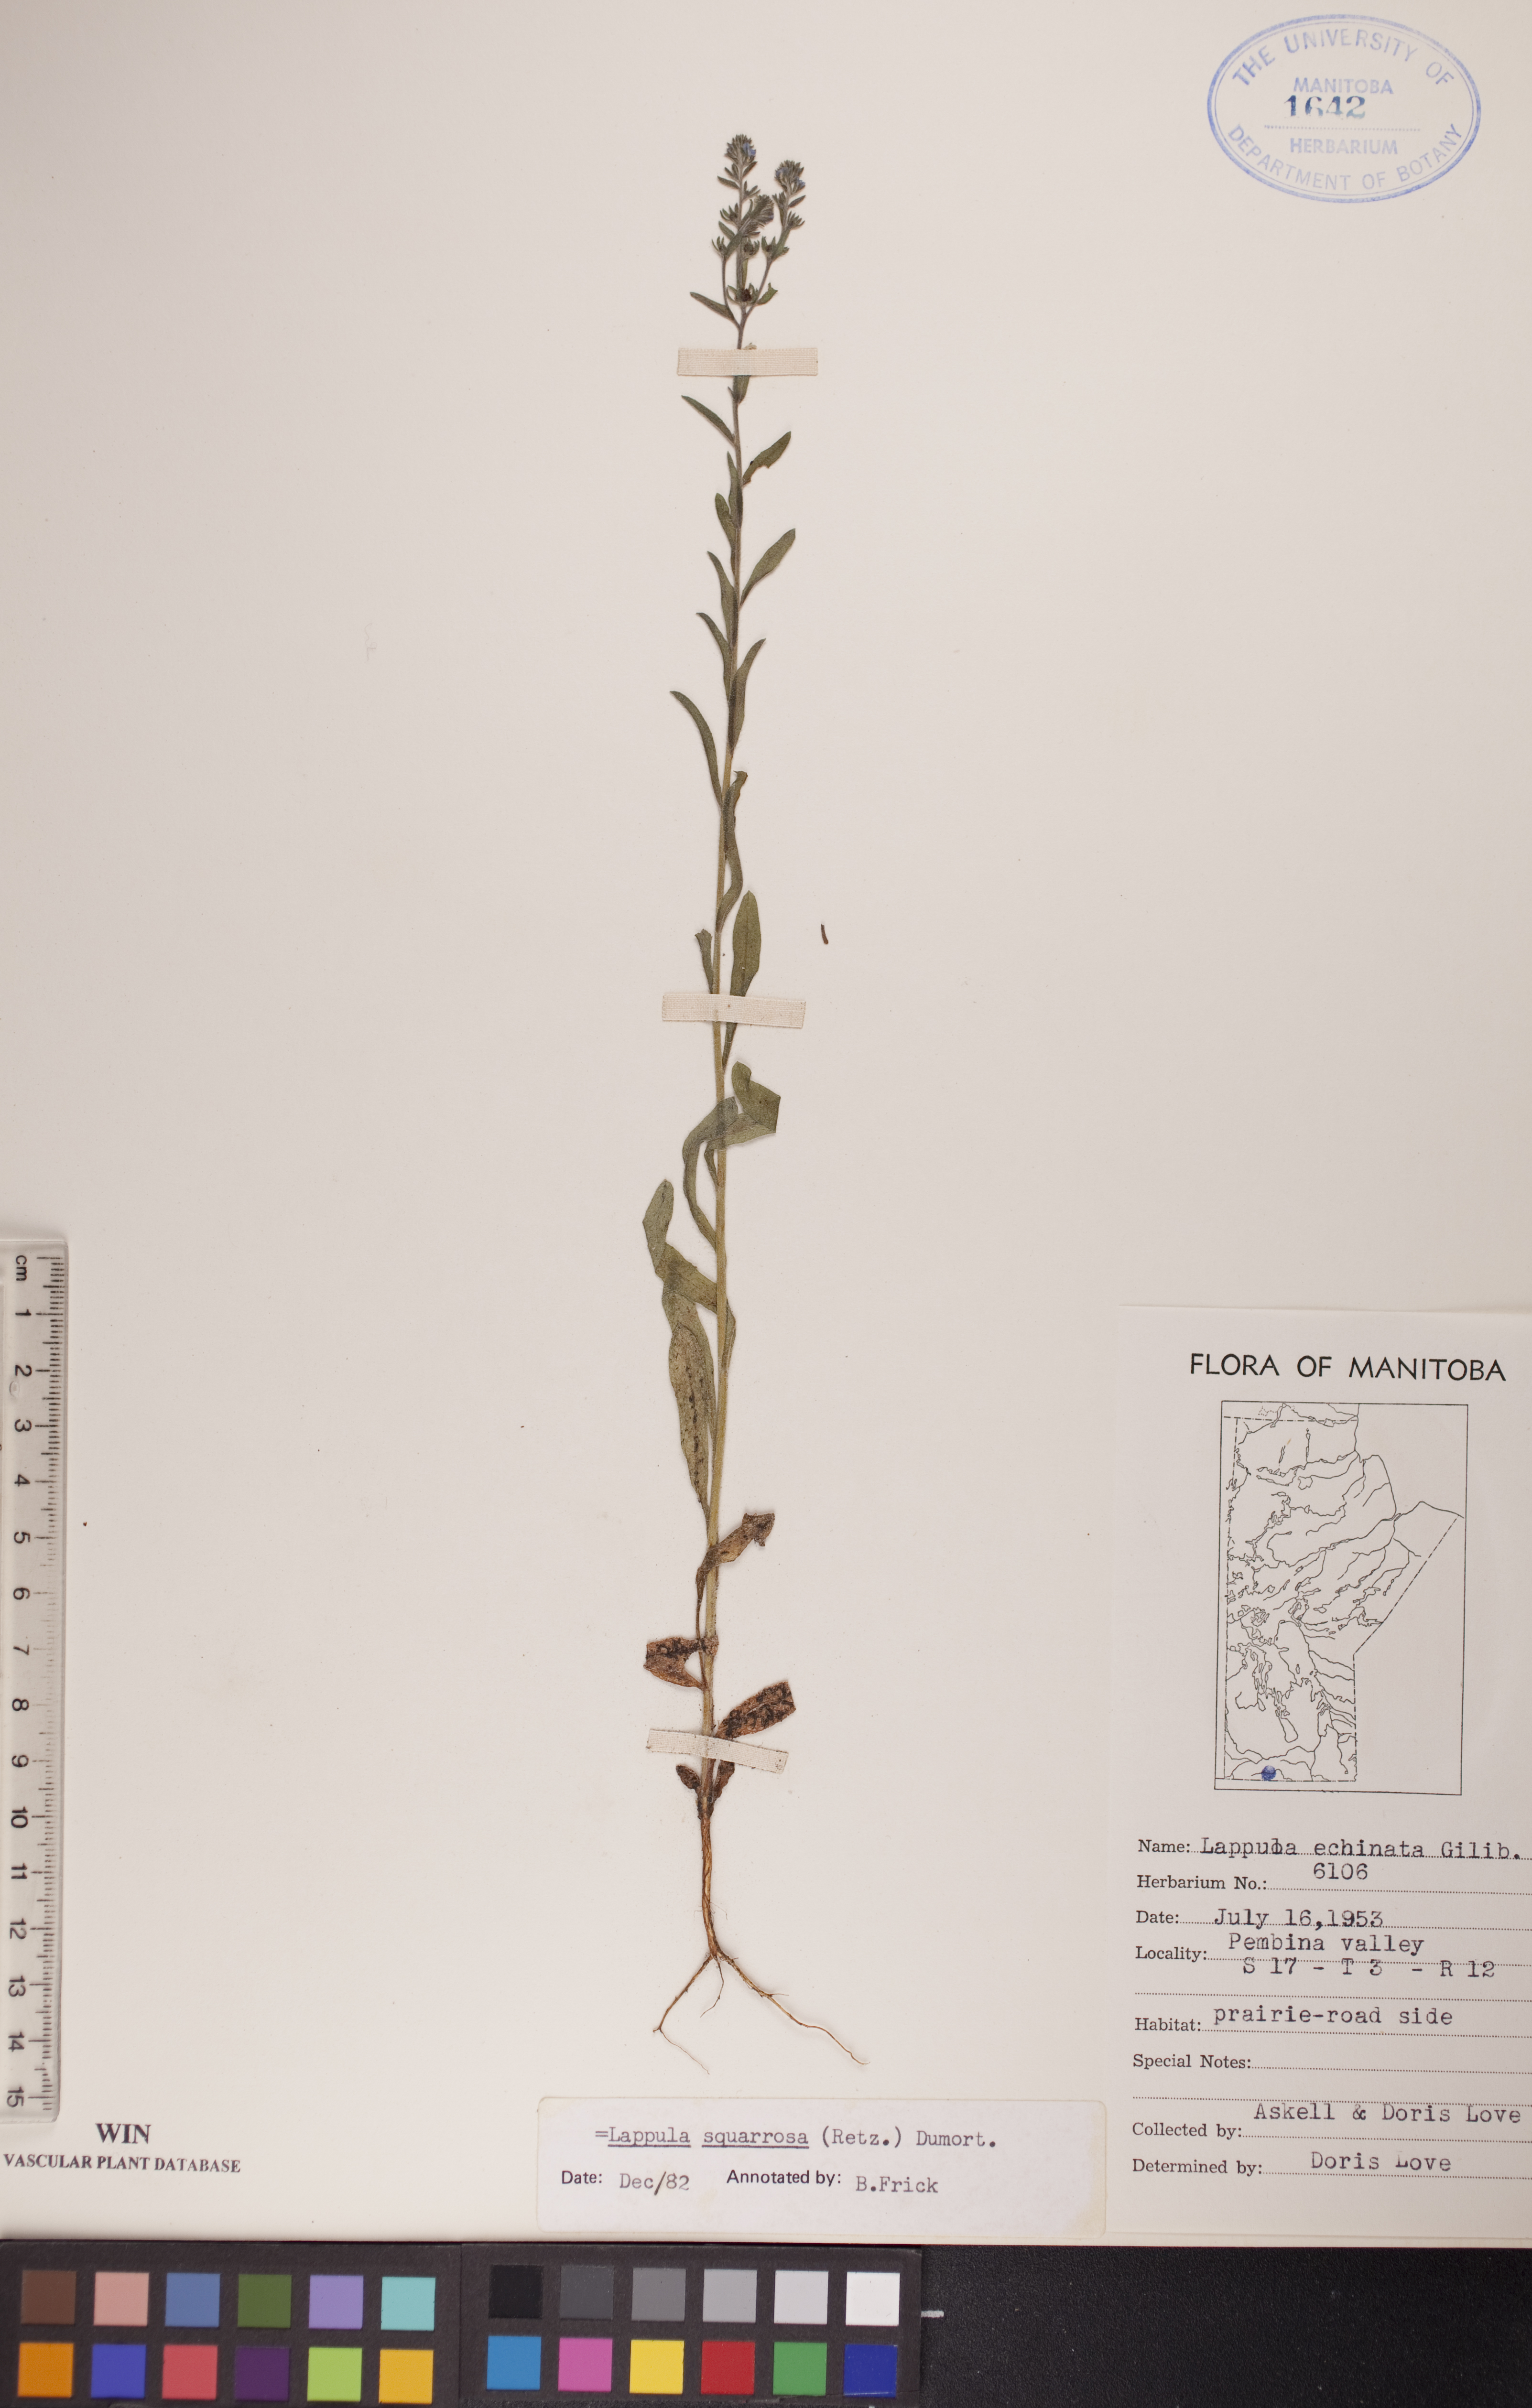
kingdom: Plantae
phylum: Tracheophyta
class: Magnoliopsida
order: Boraginales
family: Boraginaceae
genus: Lappula
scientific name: Lappula squarrosa
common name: European stickseed
